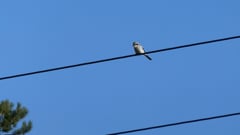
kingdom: Animalia
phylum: Chordata
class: Aves
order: Passeriformes
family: Laniidae
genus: Lanius
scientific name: Lanius excubitor
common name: Great grey shrike
